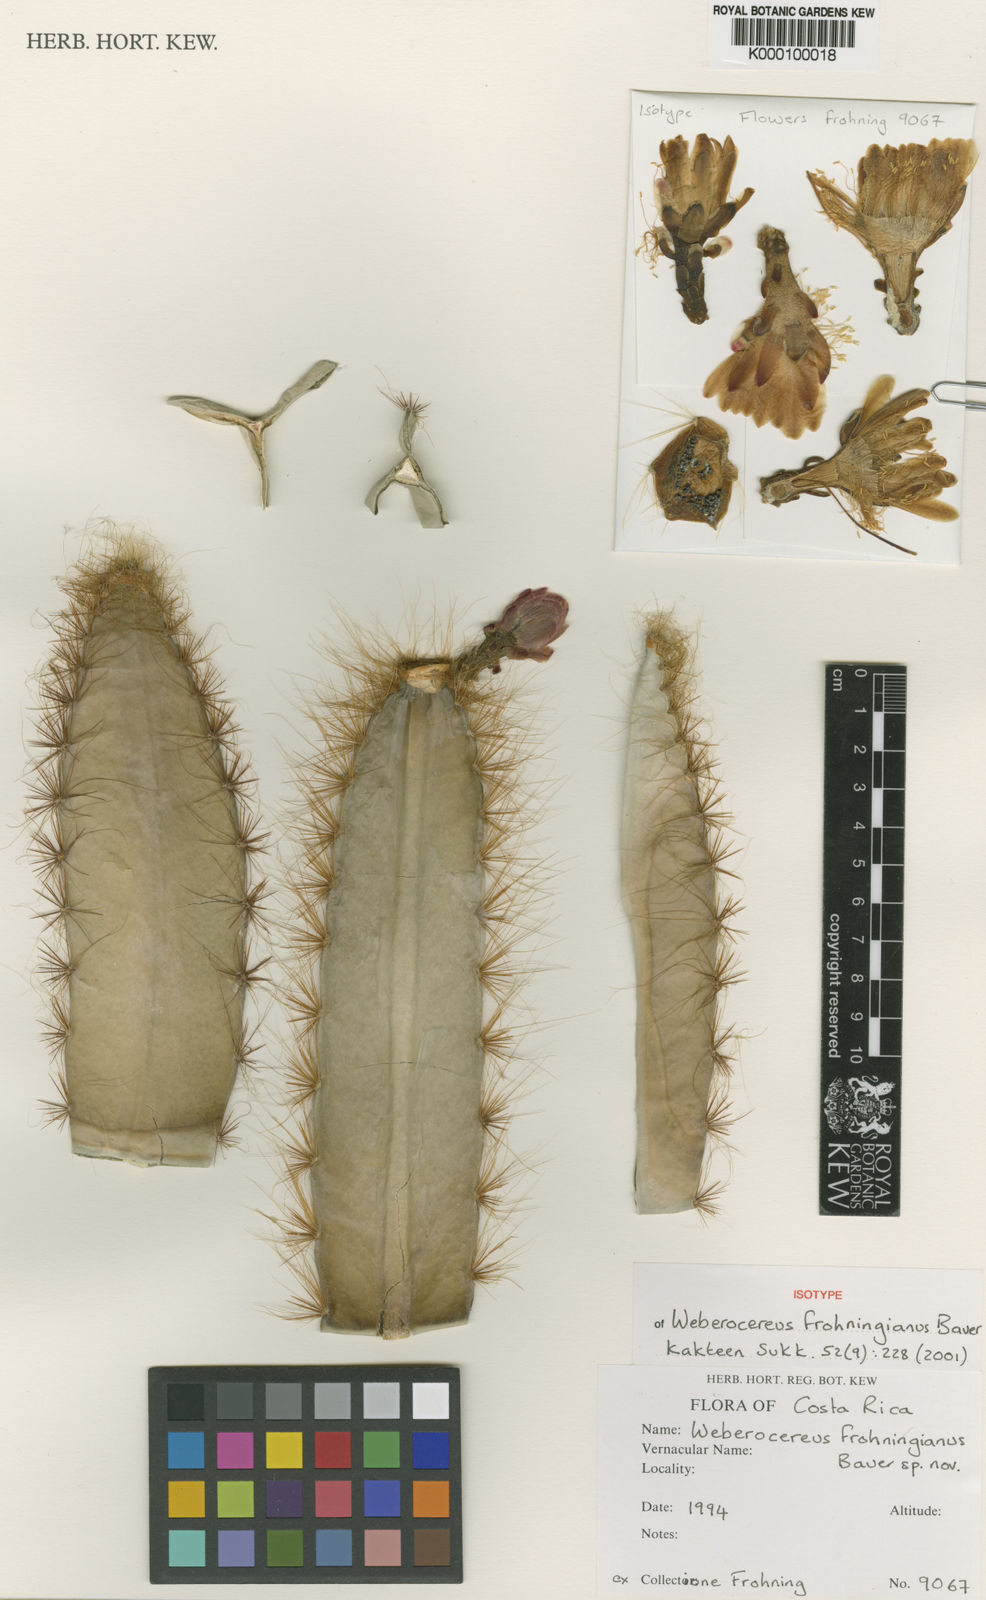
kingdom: Plantae
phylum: Tracheophyta
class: Magnoliopsida
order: Caryophyllales
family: Cactaceae
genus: Weberocereus
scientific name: Weberocereus frohningiorum
